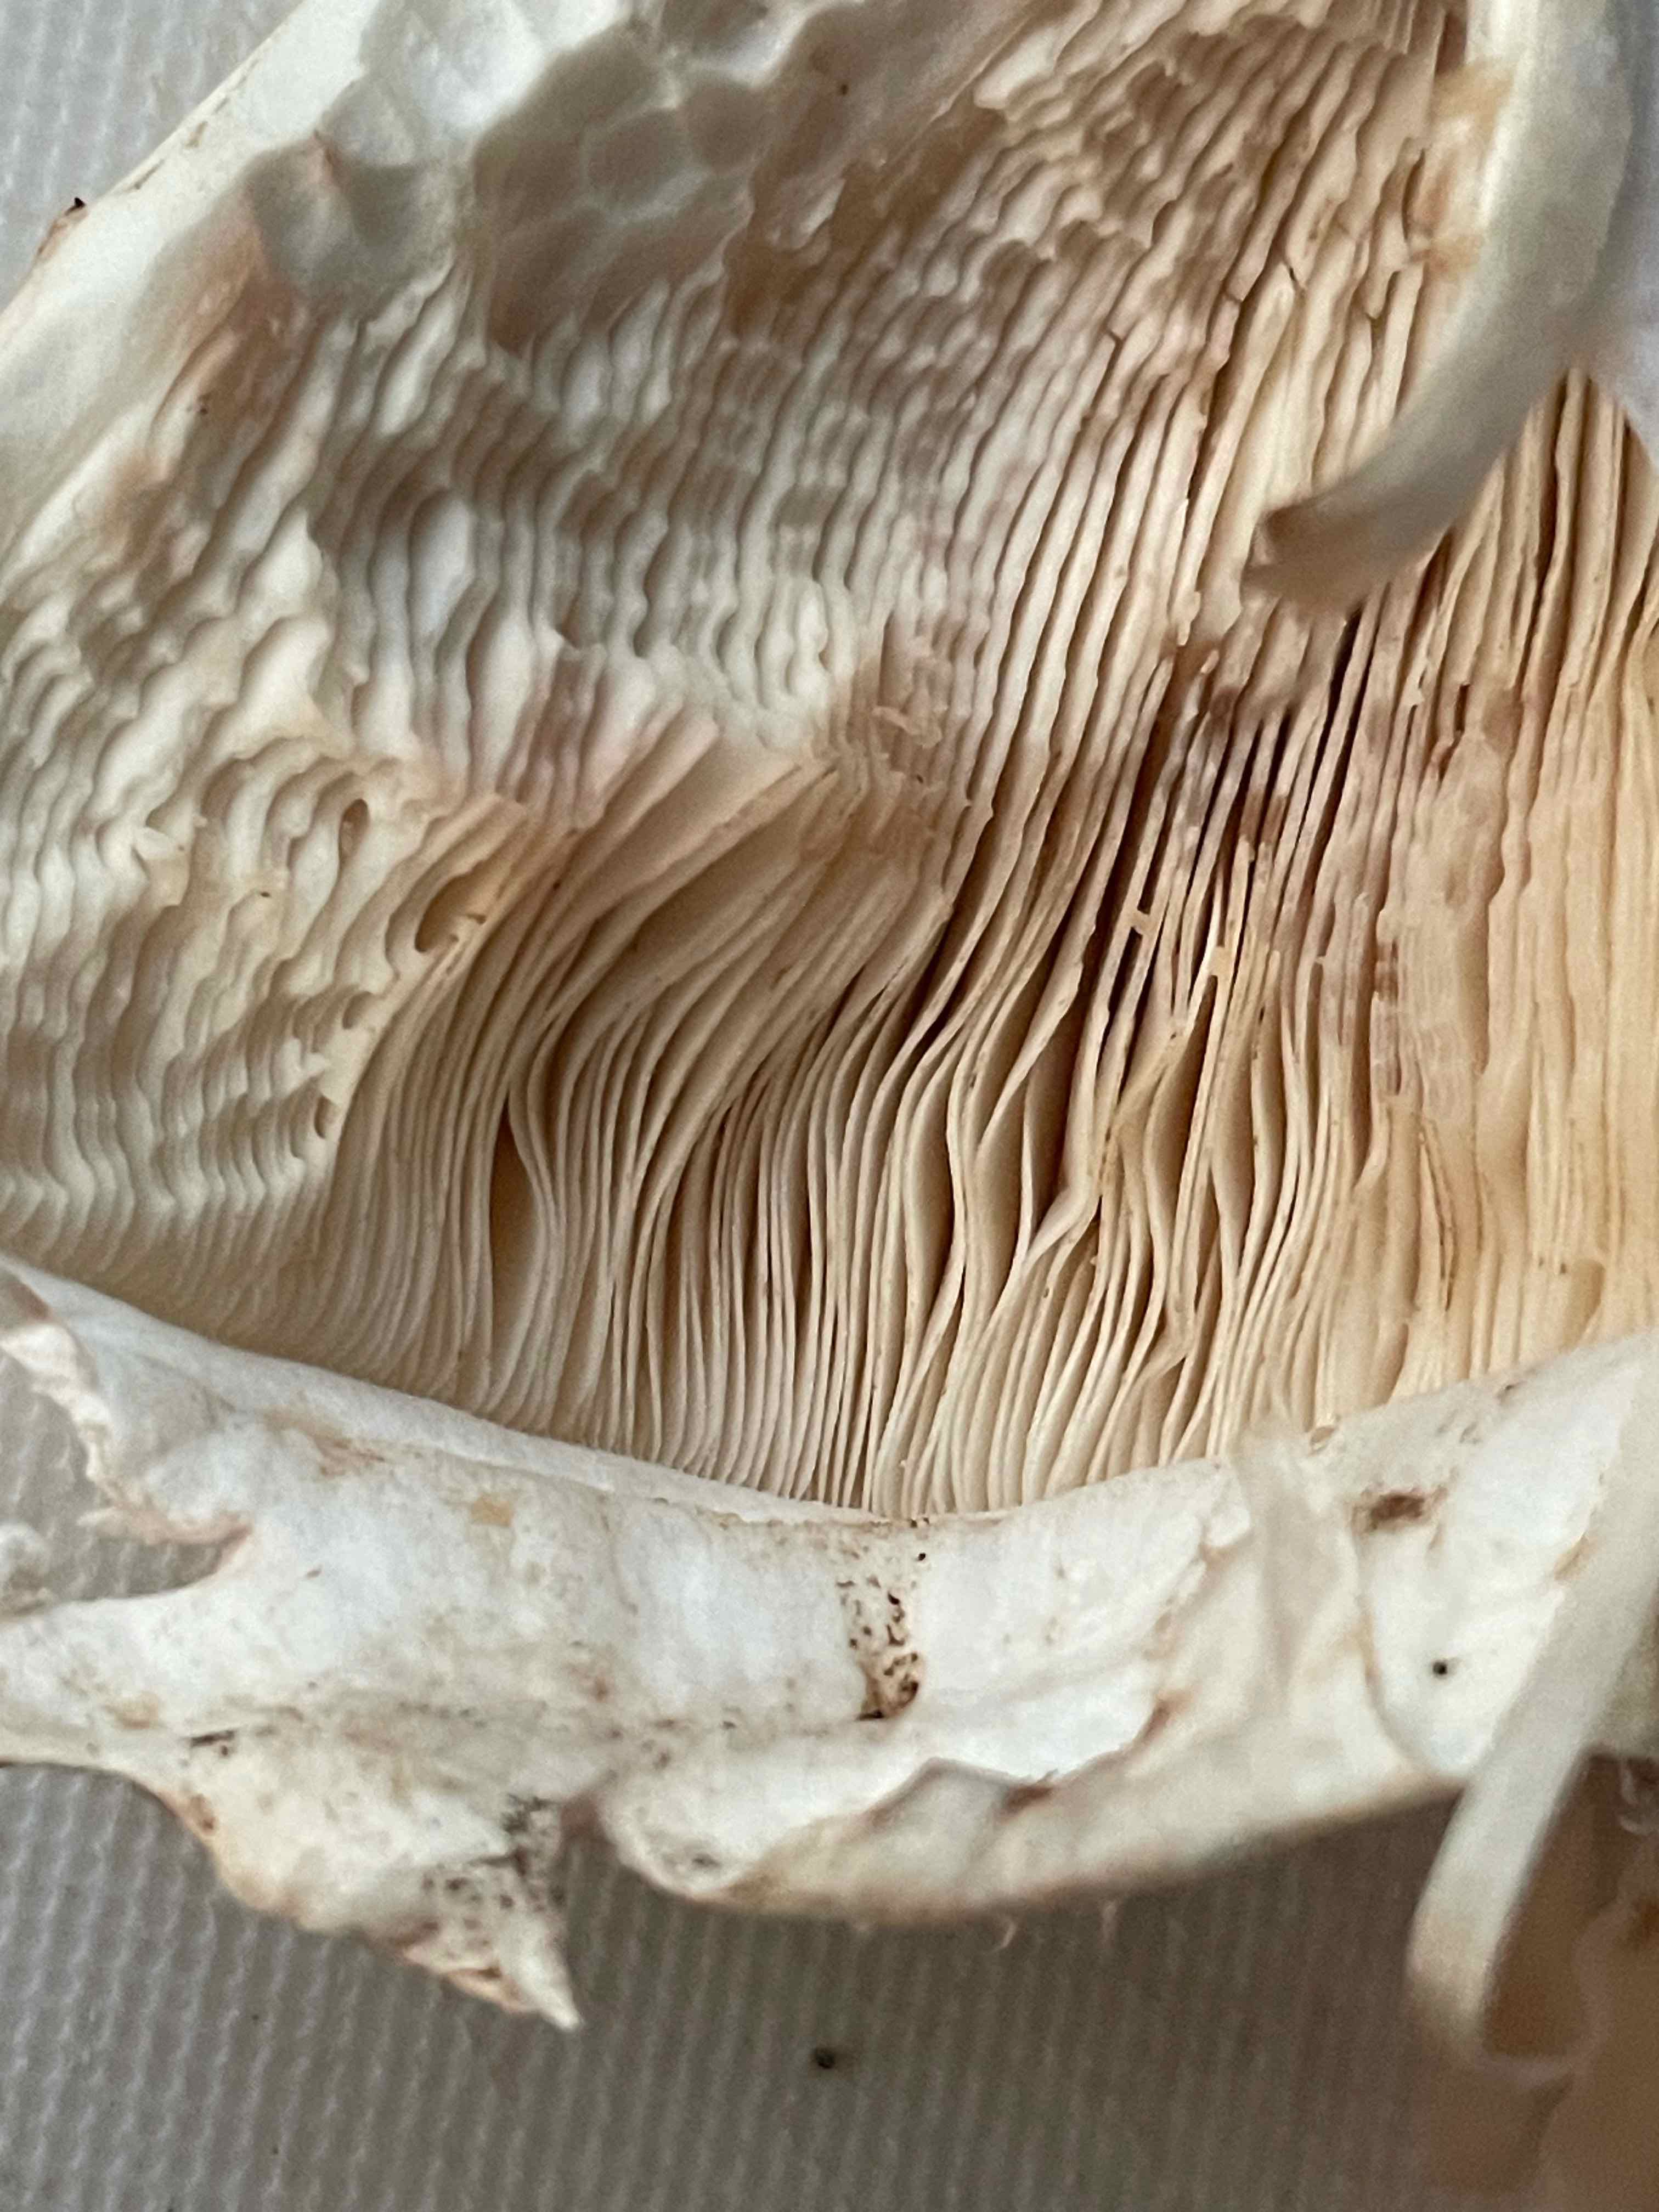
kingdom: Fungi
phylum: Basidiomycota
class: Agaricomycetes
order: Agaricales
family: Agaricaceae
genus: Chlorophyllum
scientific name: Chlorophyllum
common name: rabarberhat
